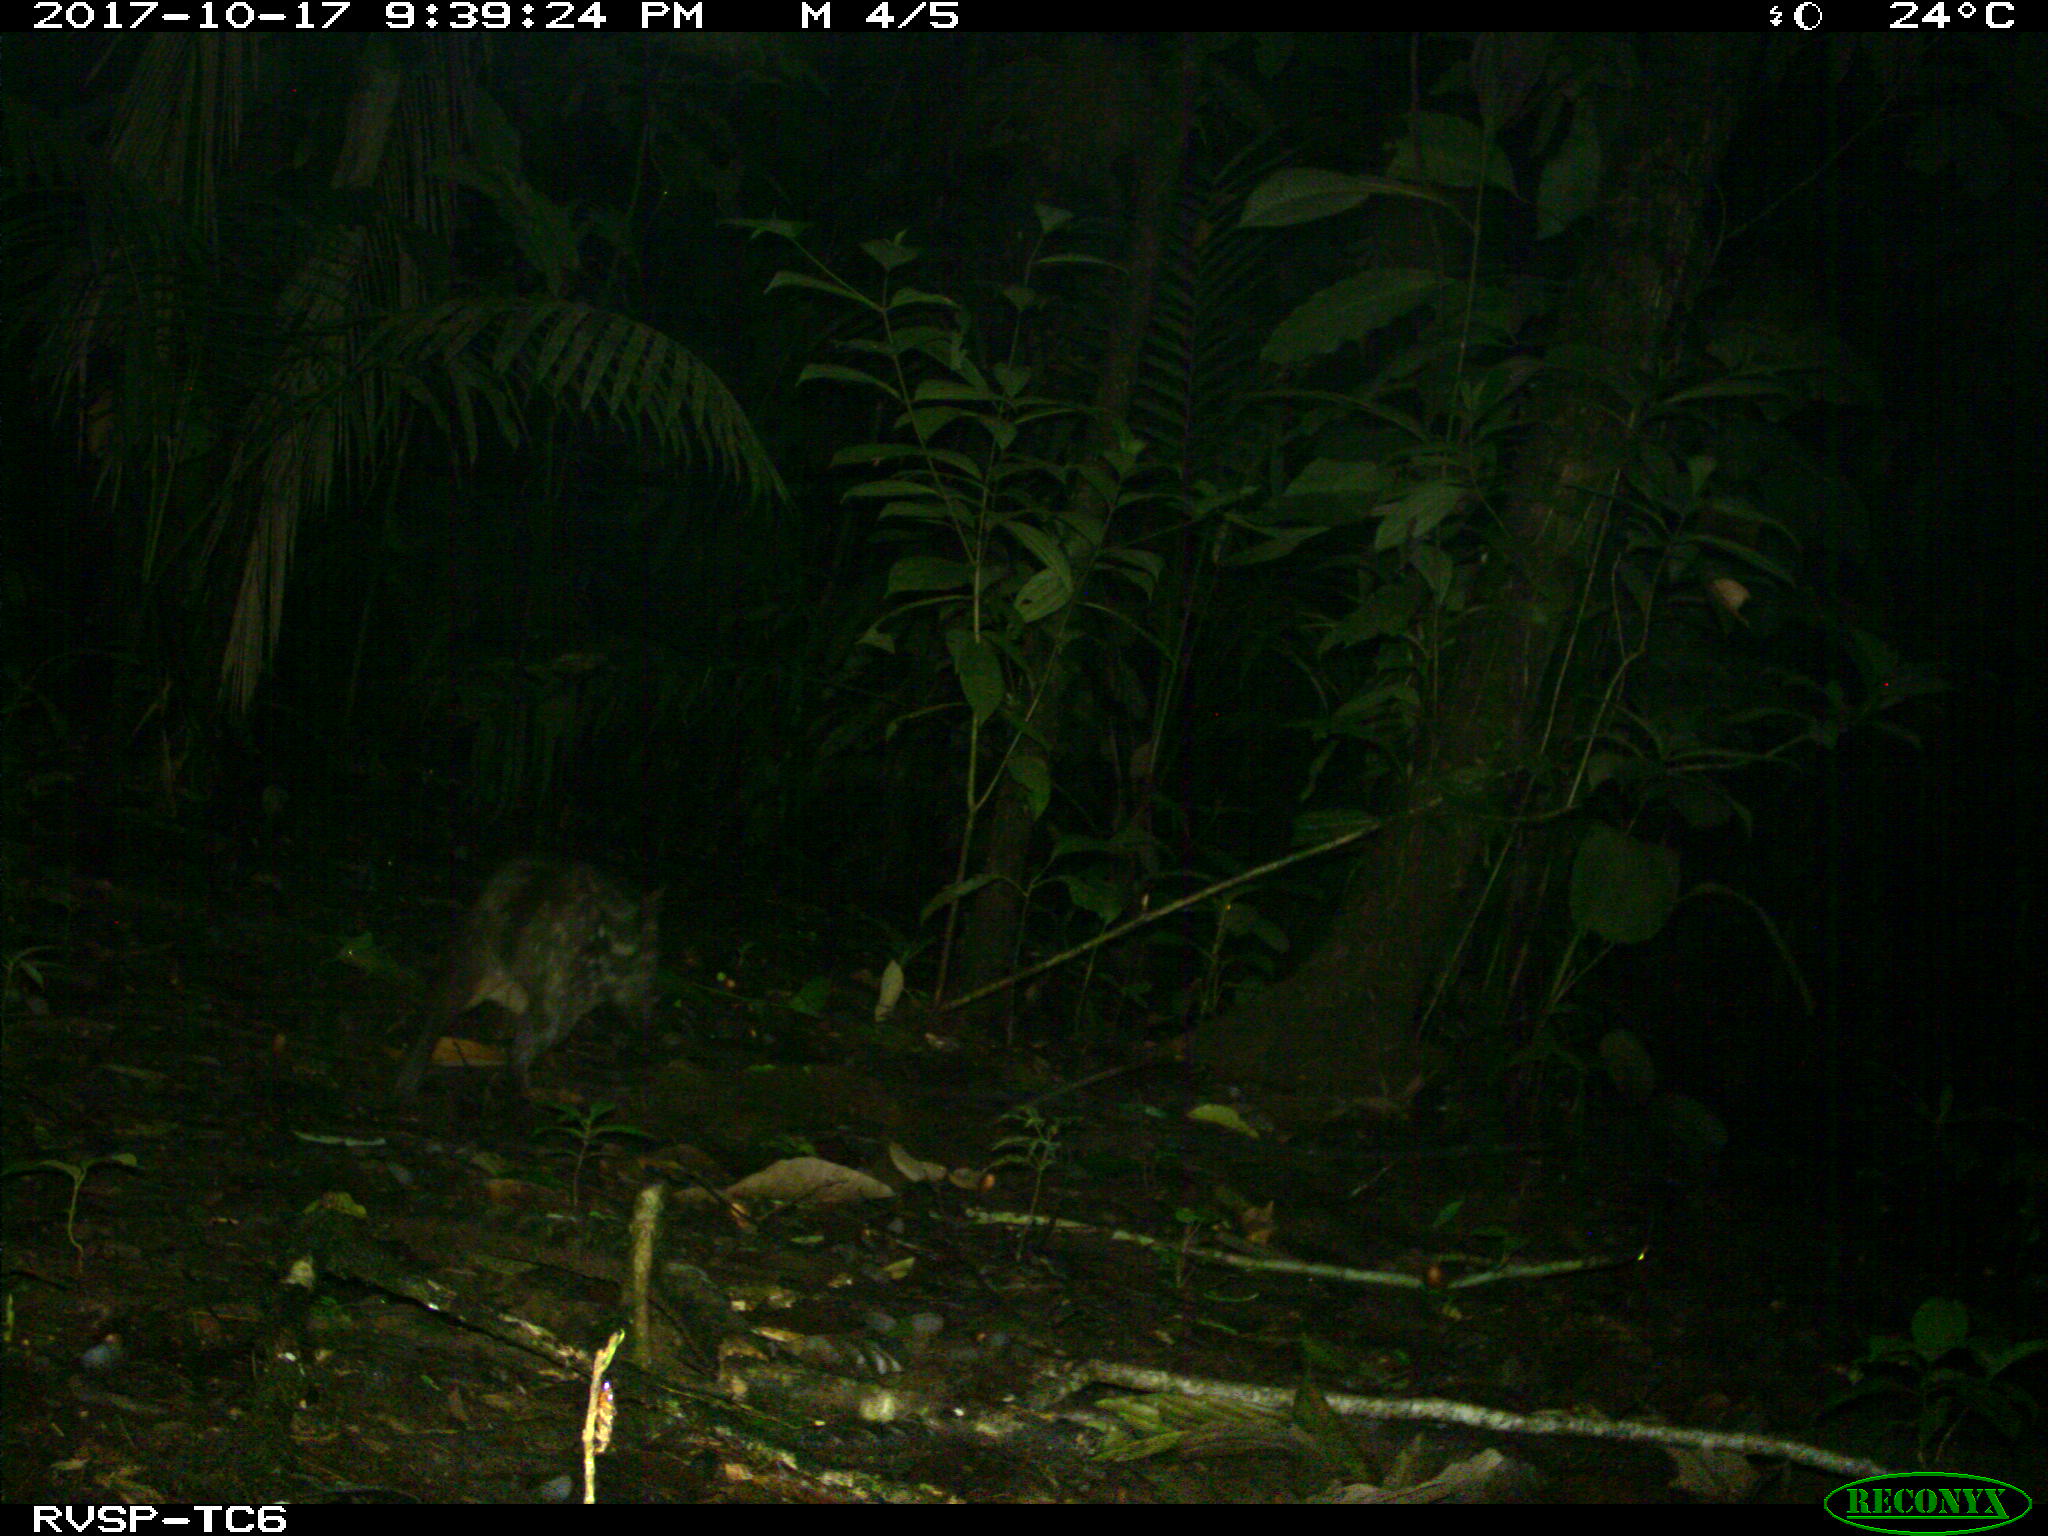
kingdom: Animalia
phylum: Chordata
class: Mammalia
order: Rodentia
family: Cuniculidae
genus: Cuniculus
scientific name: Cuniculus paca
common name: Lowland paca
